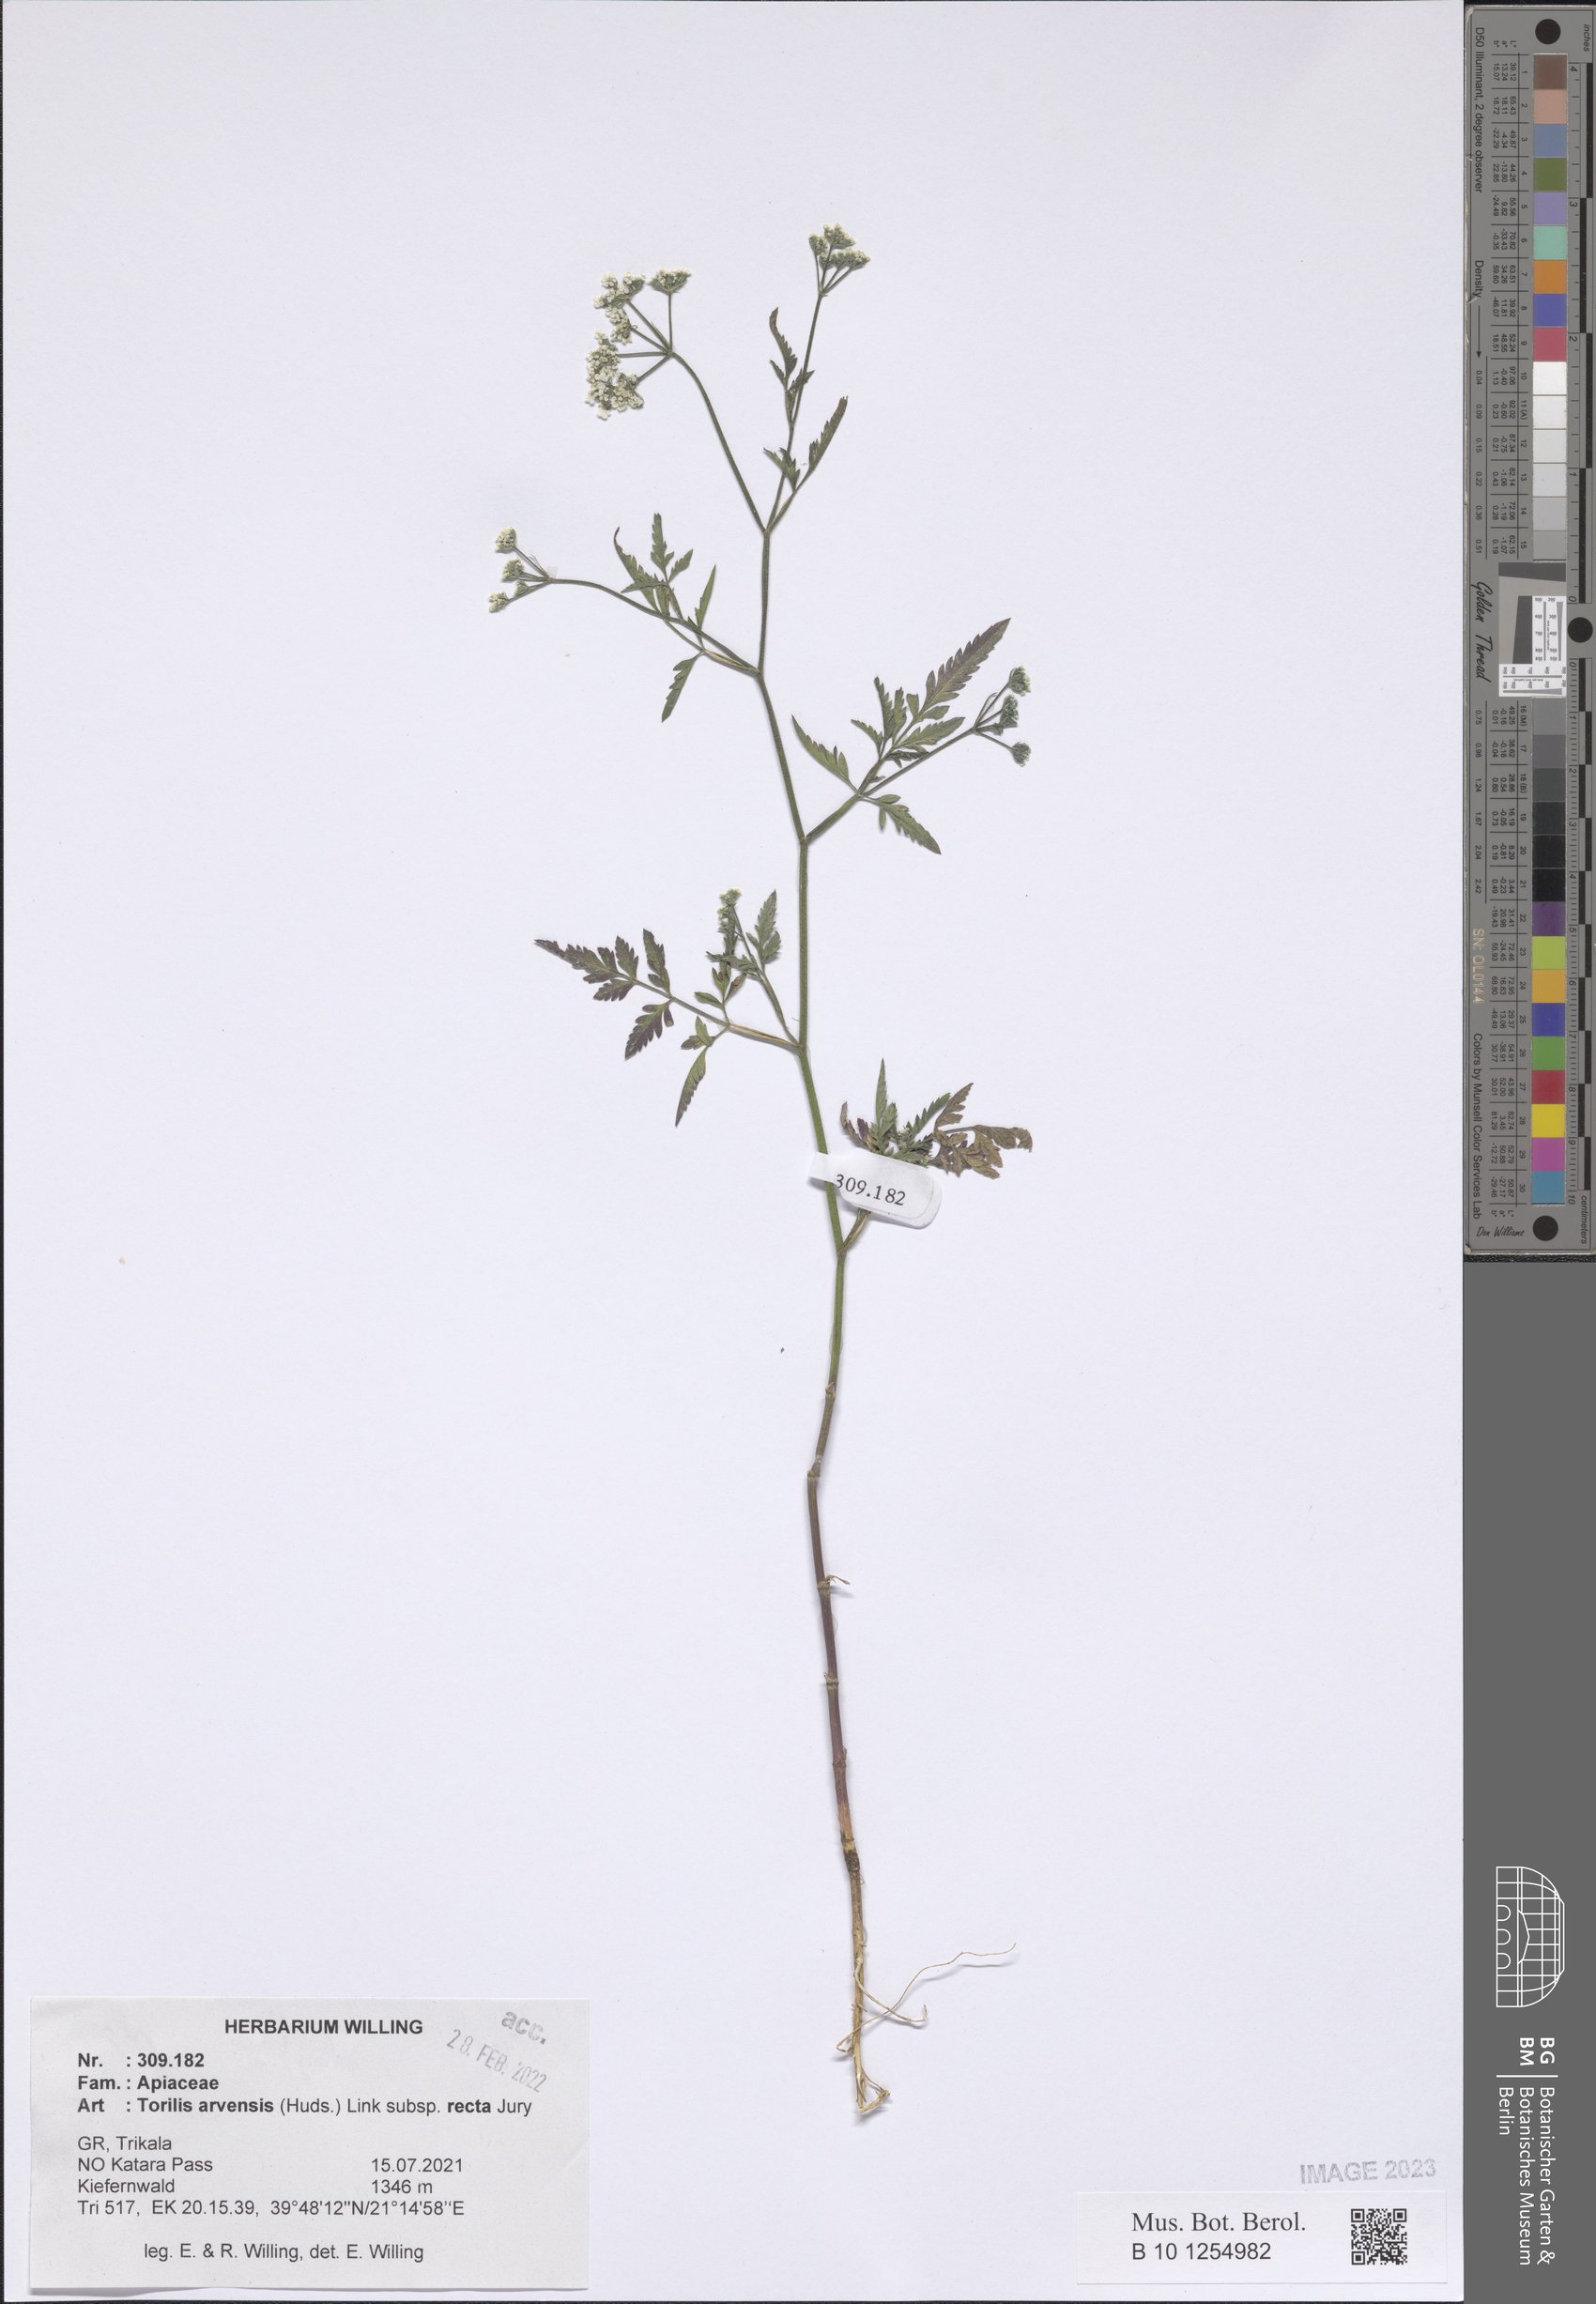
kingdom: Plantae
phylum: Tracheophyta
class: Magnoliopsida
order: Apiales
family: Apiaceae
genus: Torilis
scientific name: Torilis arvensis
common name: Spreading hedge-parsley
